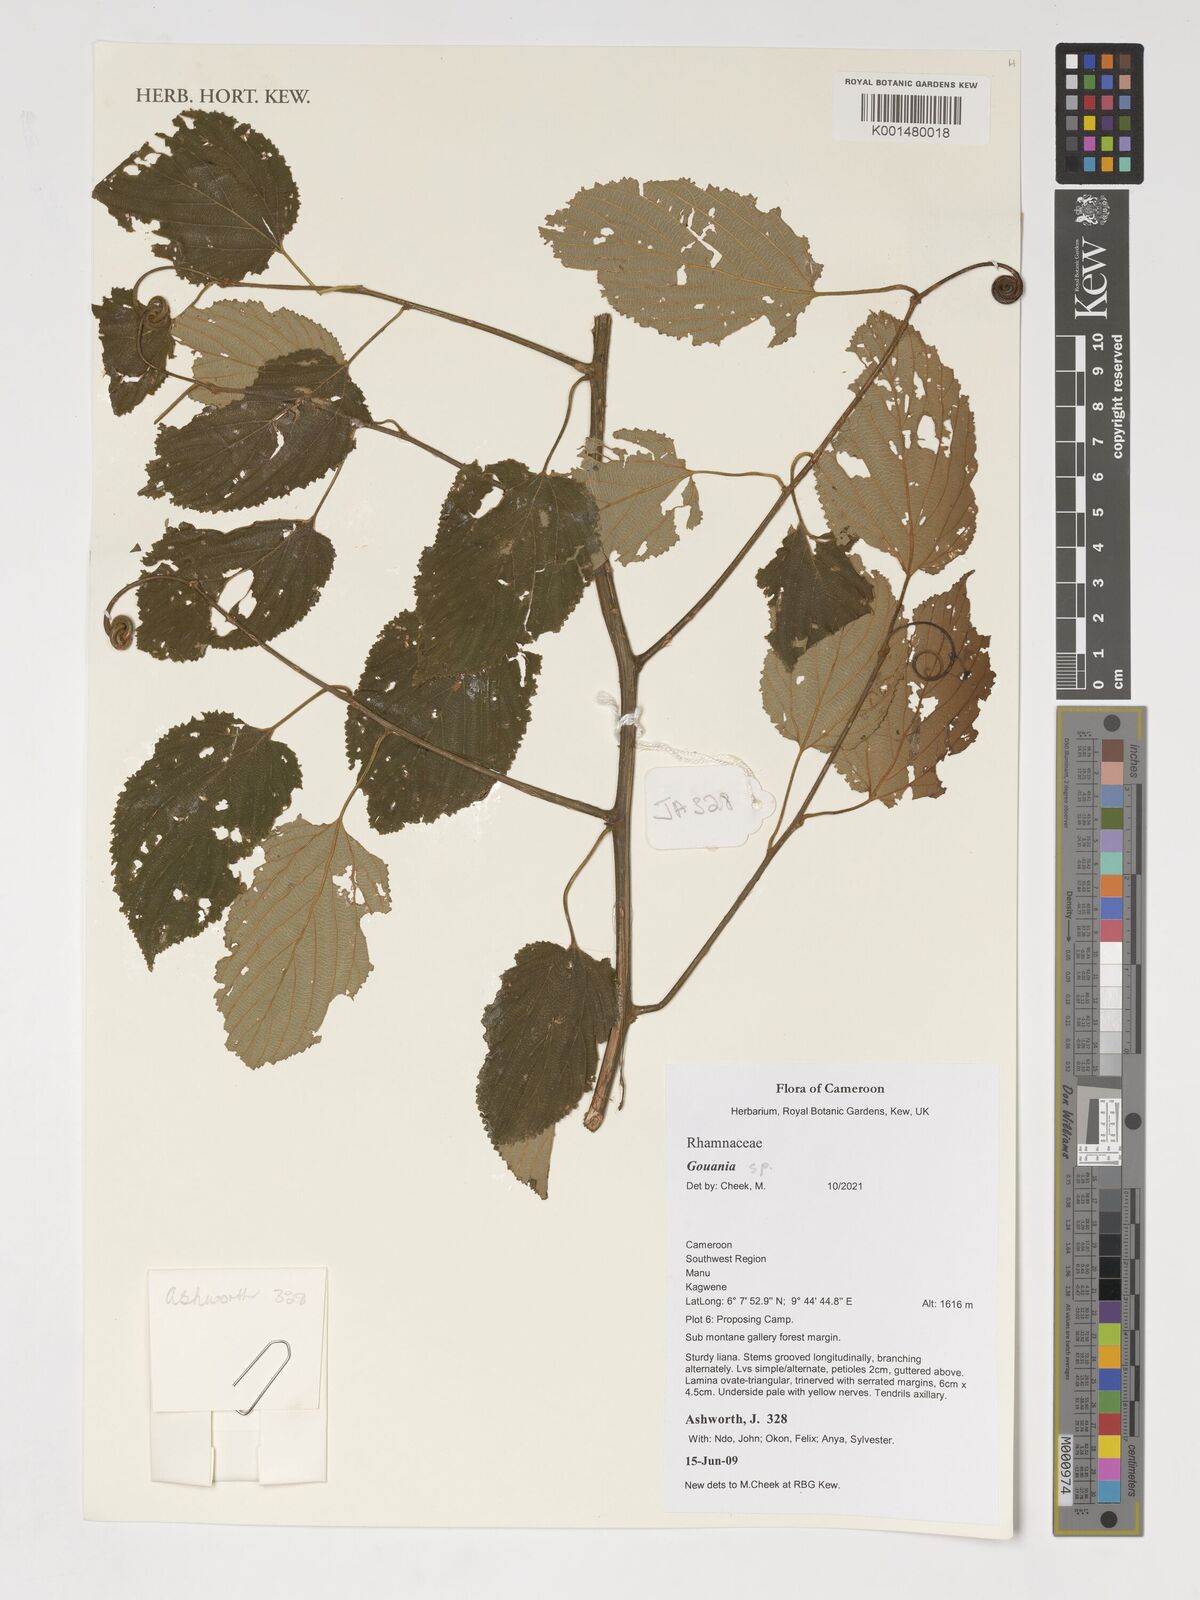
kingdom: Plantae
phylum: Tracheophyta
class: Magnoliopsida
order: Rosales
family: Rhamnaceae
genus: Gouania
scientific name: Gouania
